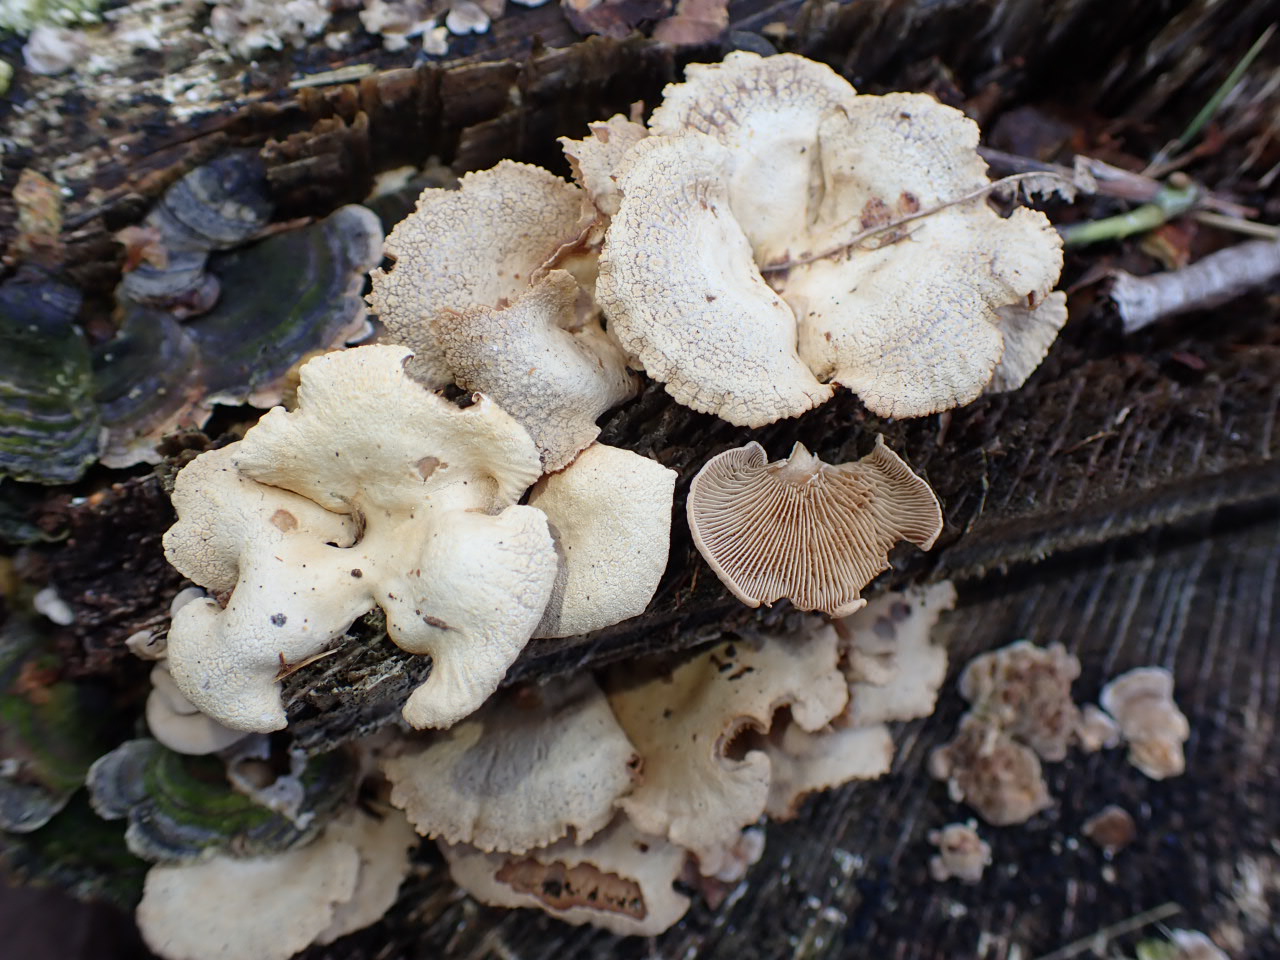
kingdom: Fungi
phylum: Basidiomycota
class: Agaricomycetes
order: Agaricales
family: Mycenaceae
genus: Panellus
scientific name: Panellus stipticus
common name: kliddet epaulethat
